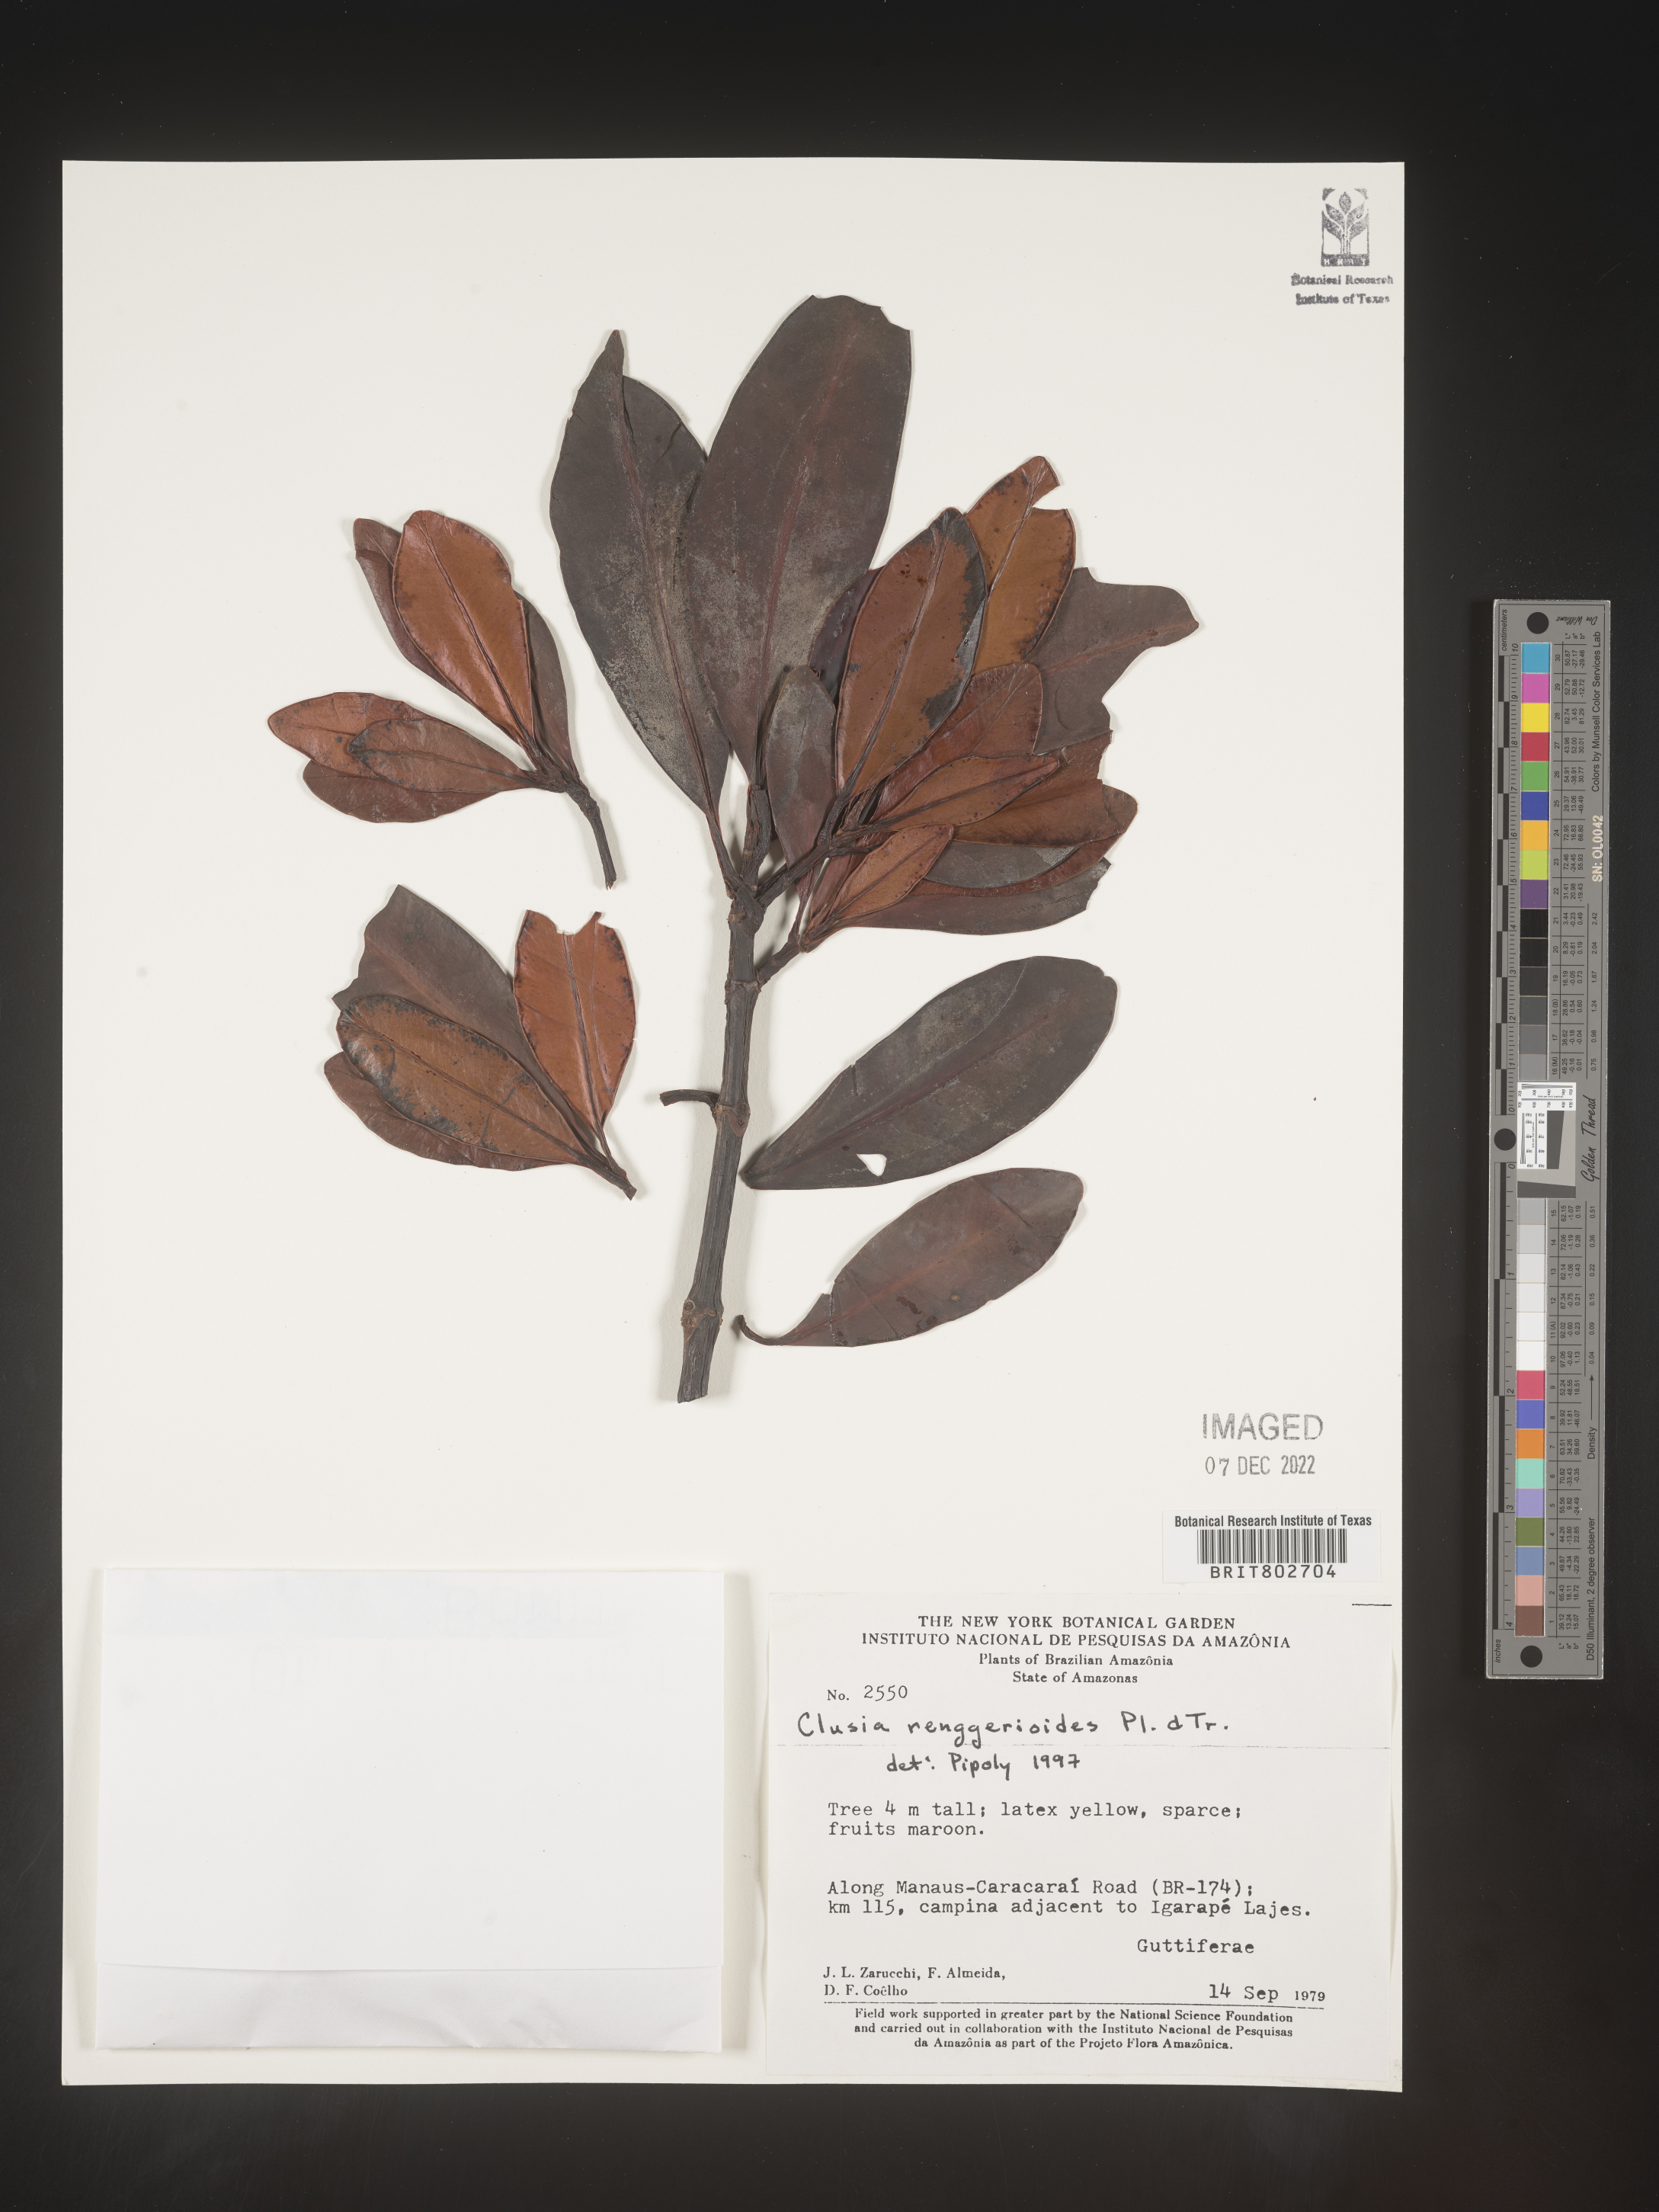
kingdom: Plantae
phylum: Tracheophyta
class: Magnoliopsida
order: Malpighiales
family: Clusiaceae
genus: Clusia
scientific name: Clusia renggerioides
